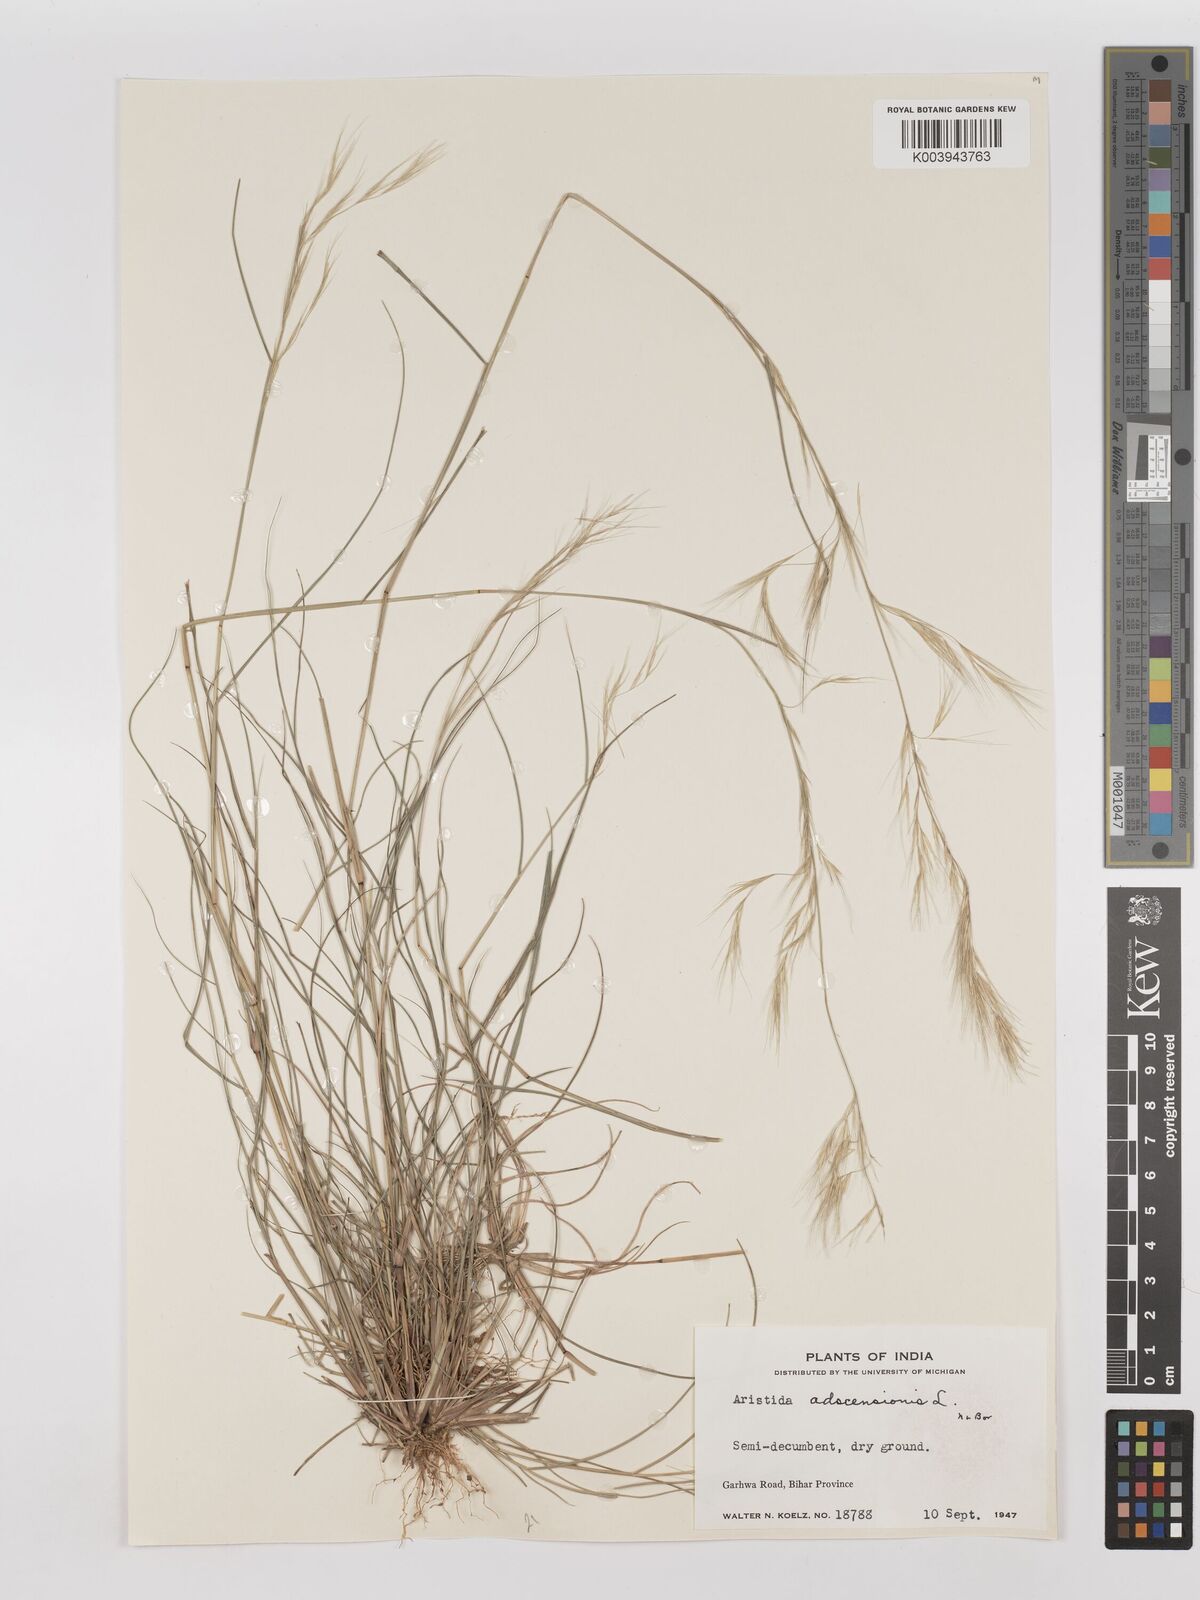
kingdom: Plantae
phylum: Tracheophyta
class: Liliopsida
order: Poales
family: Poaceae
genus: Aristida
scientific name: Aristida adscensionis
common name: Sixweeks threeawn
